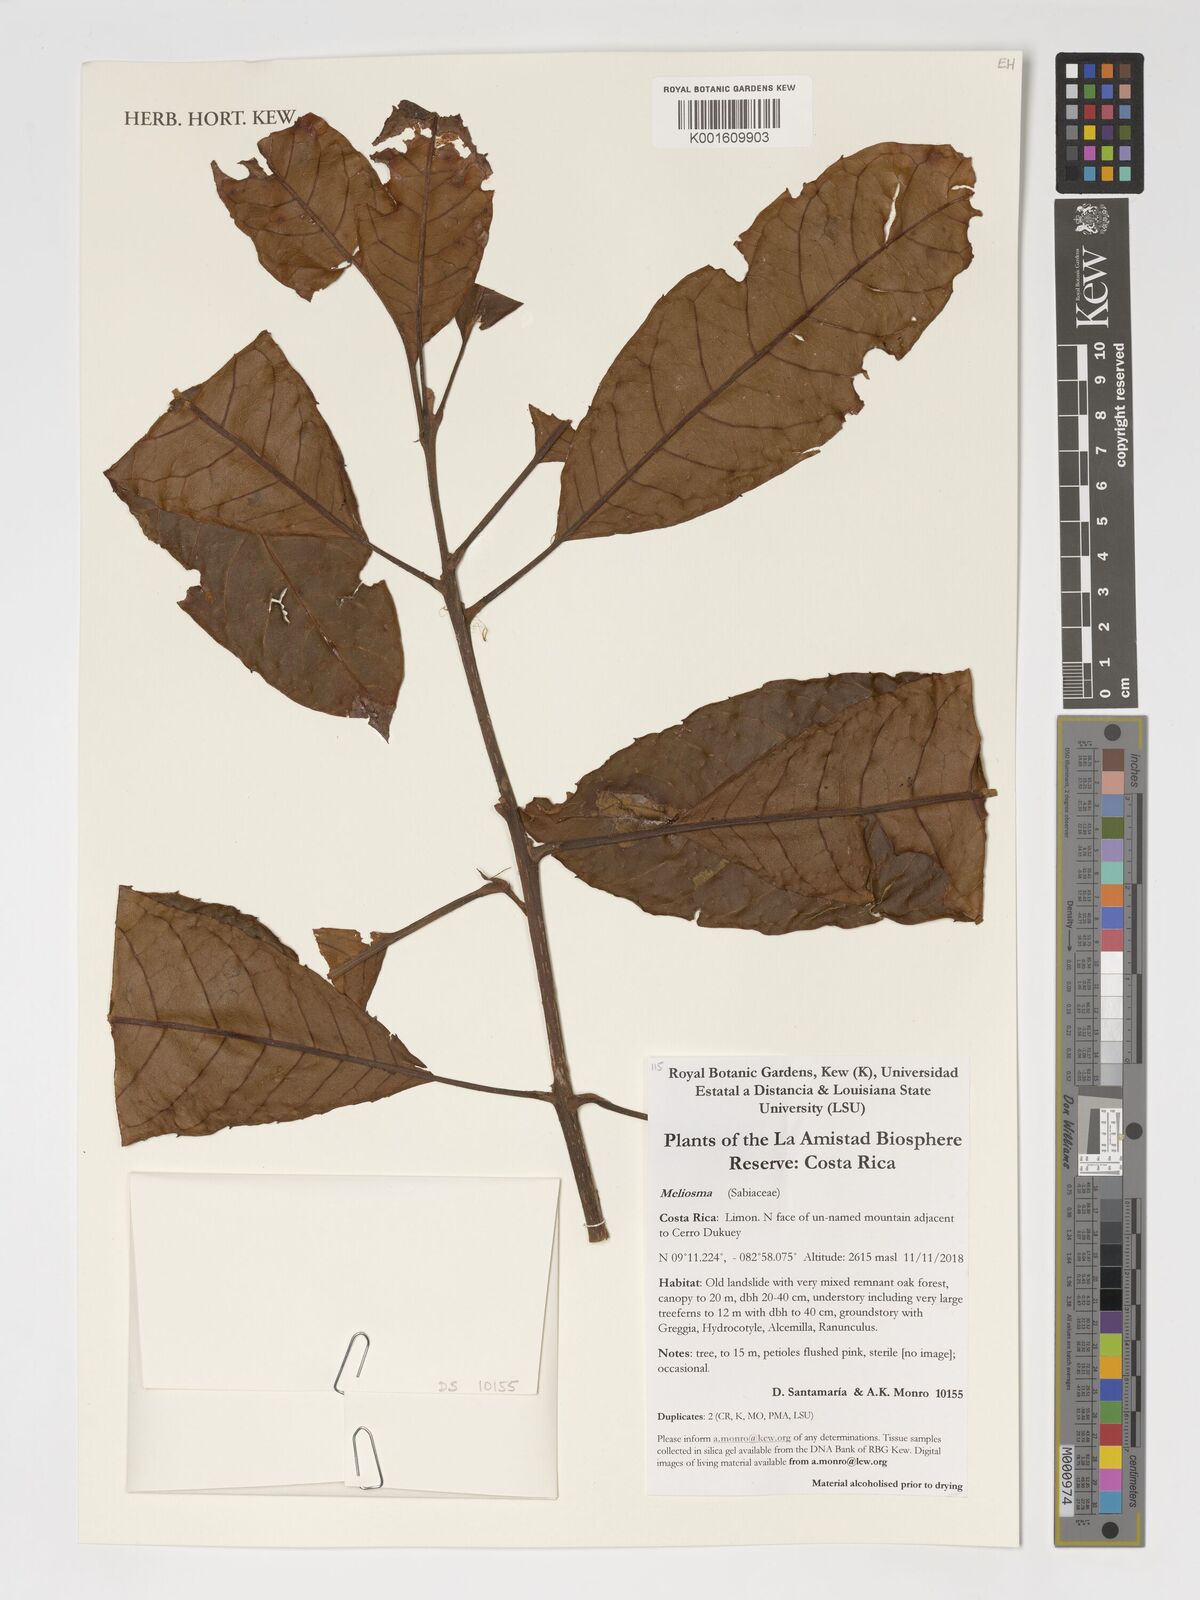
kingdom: Plantae
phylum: Tracheophyta
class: Magnoliopsida
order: Proteales
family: Sabiaceae
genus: Meliosma
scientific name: Meliosma
